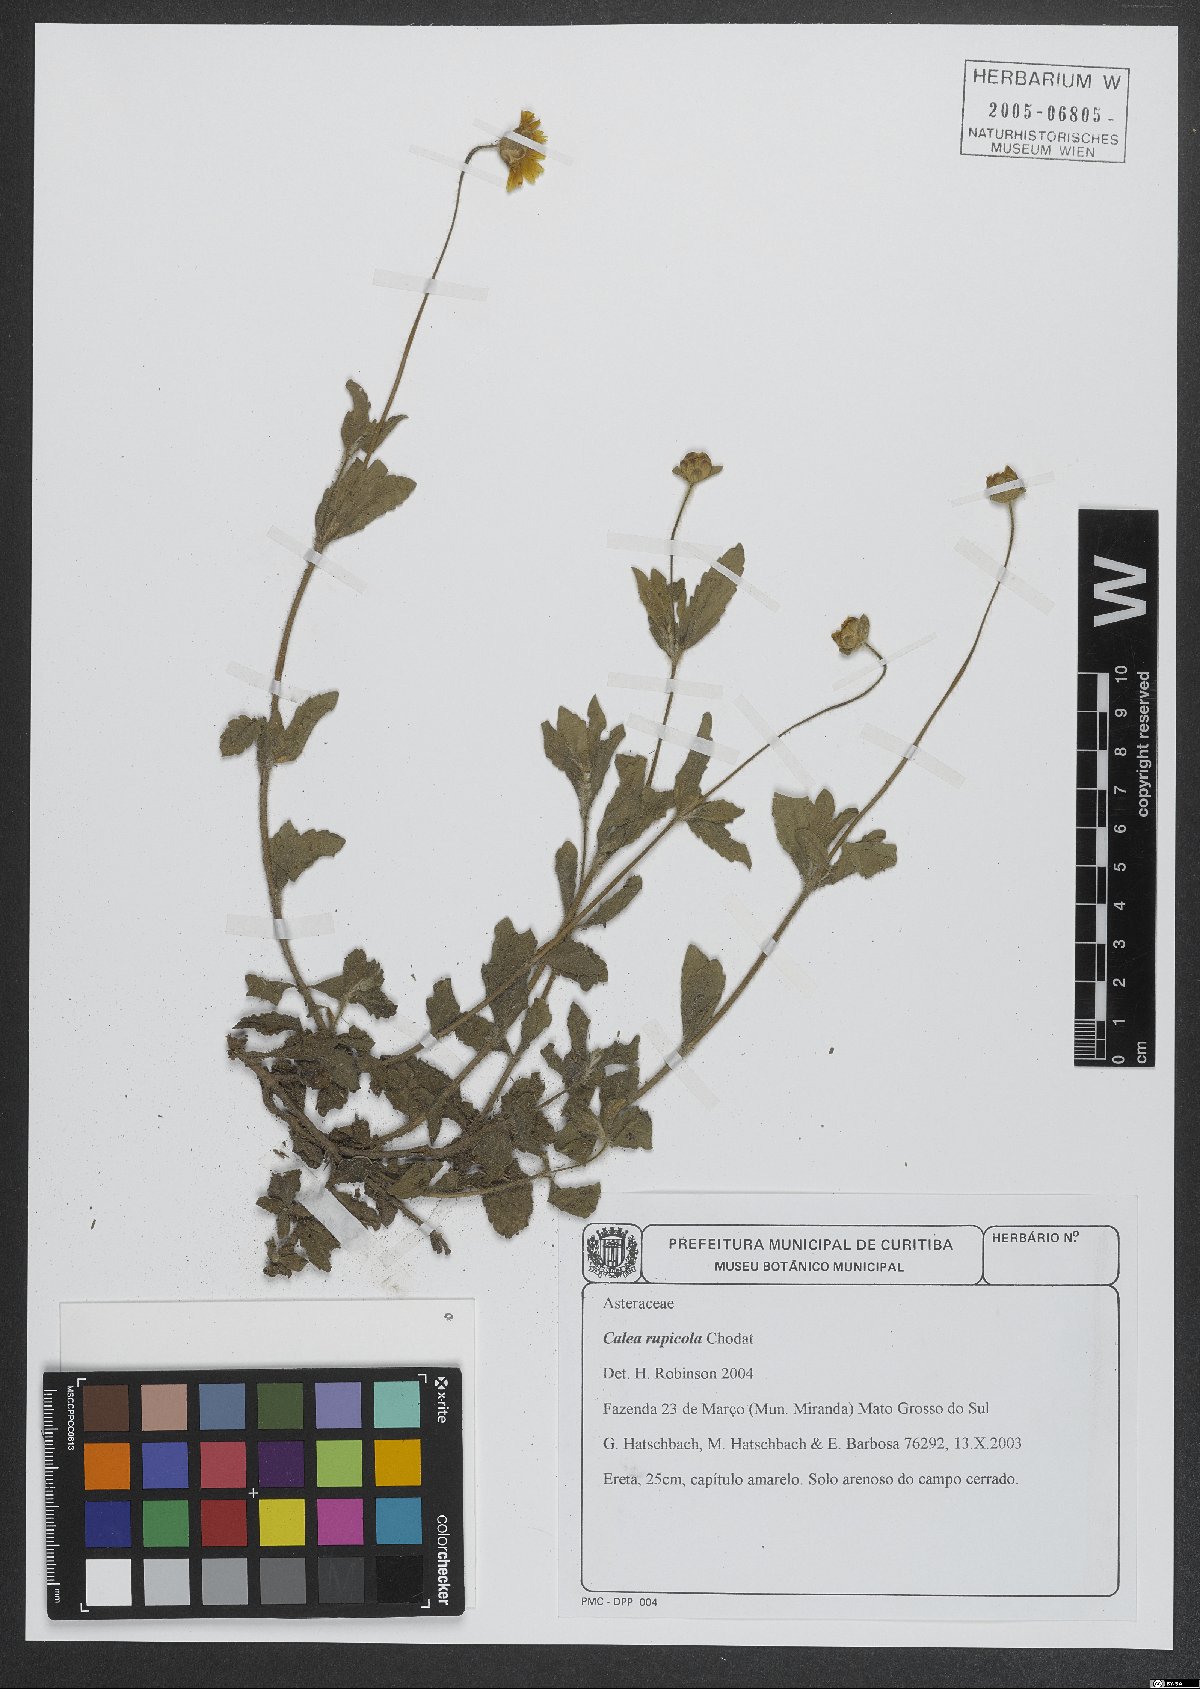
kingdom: Plantae
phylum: Tracheophyta
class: Magnoliopsida
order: Asterales
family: Asteraceae
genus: Calea
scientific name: Calea rupicola
